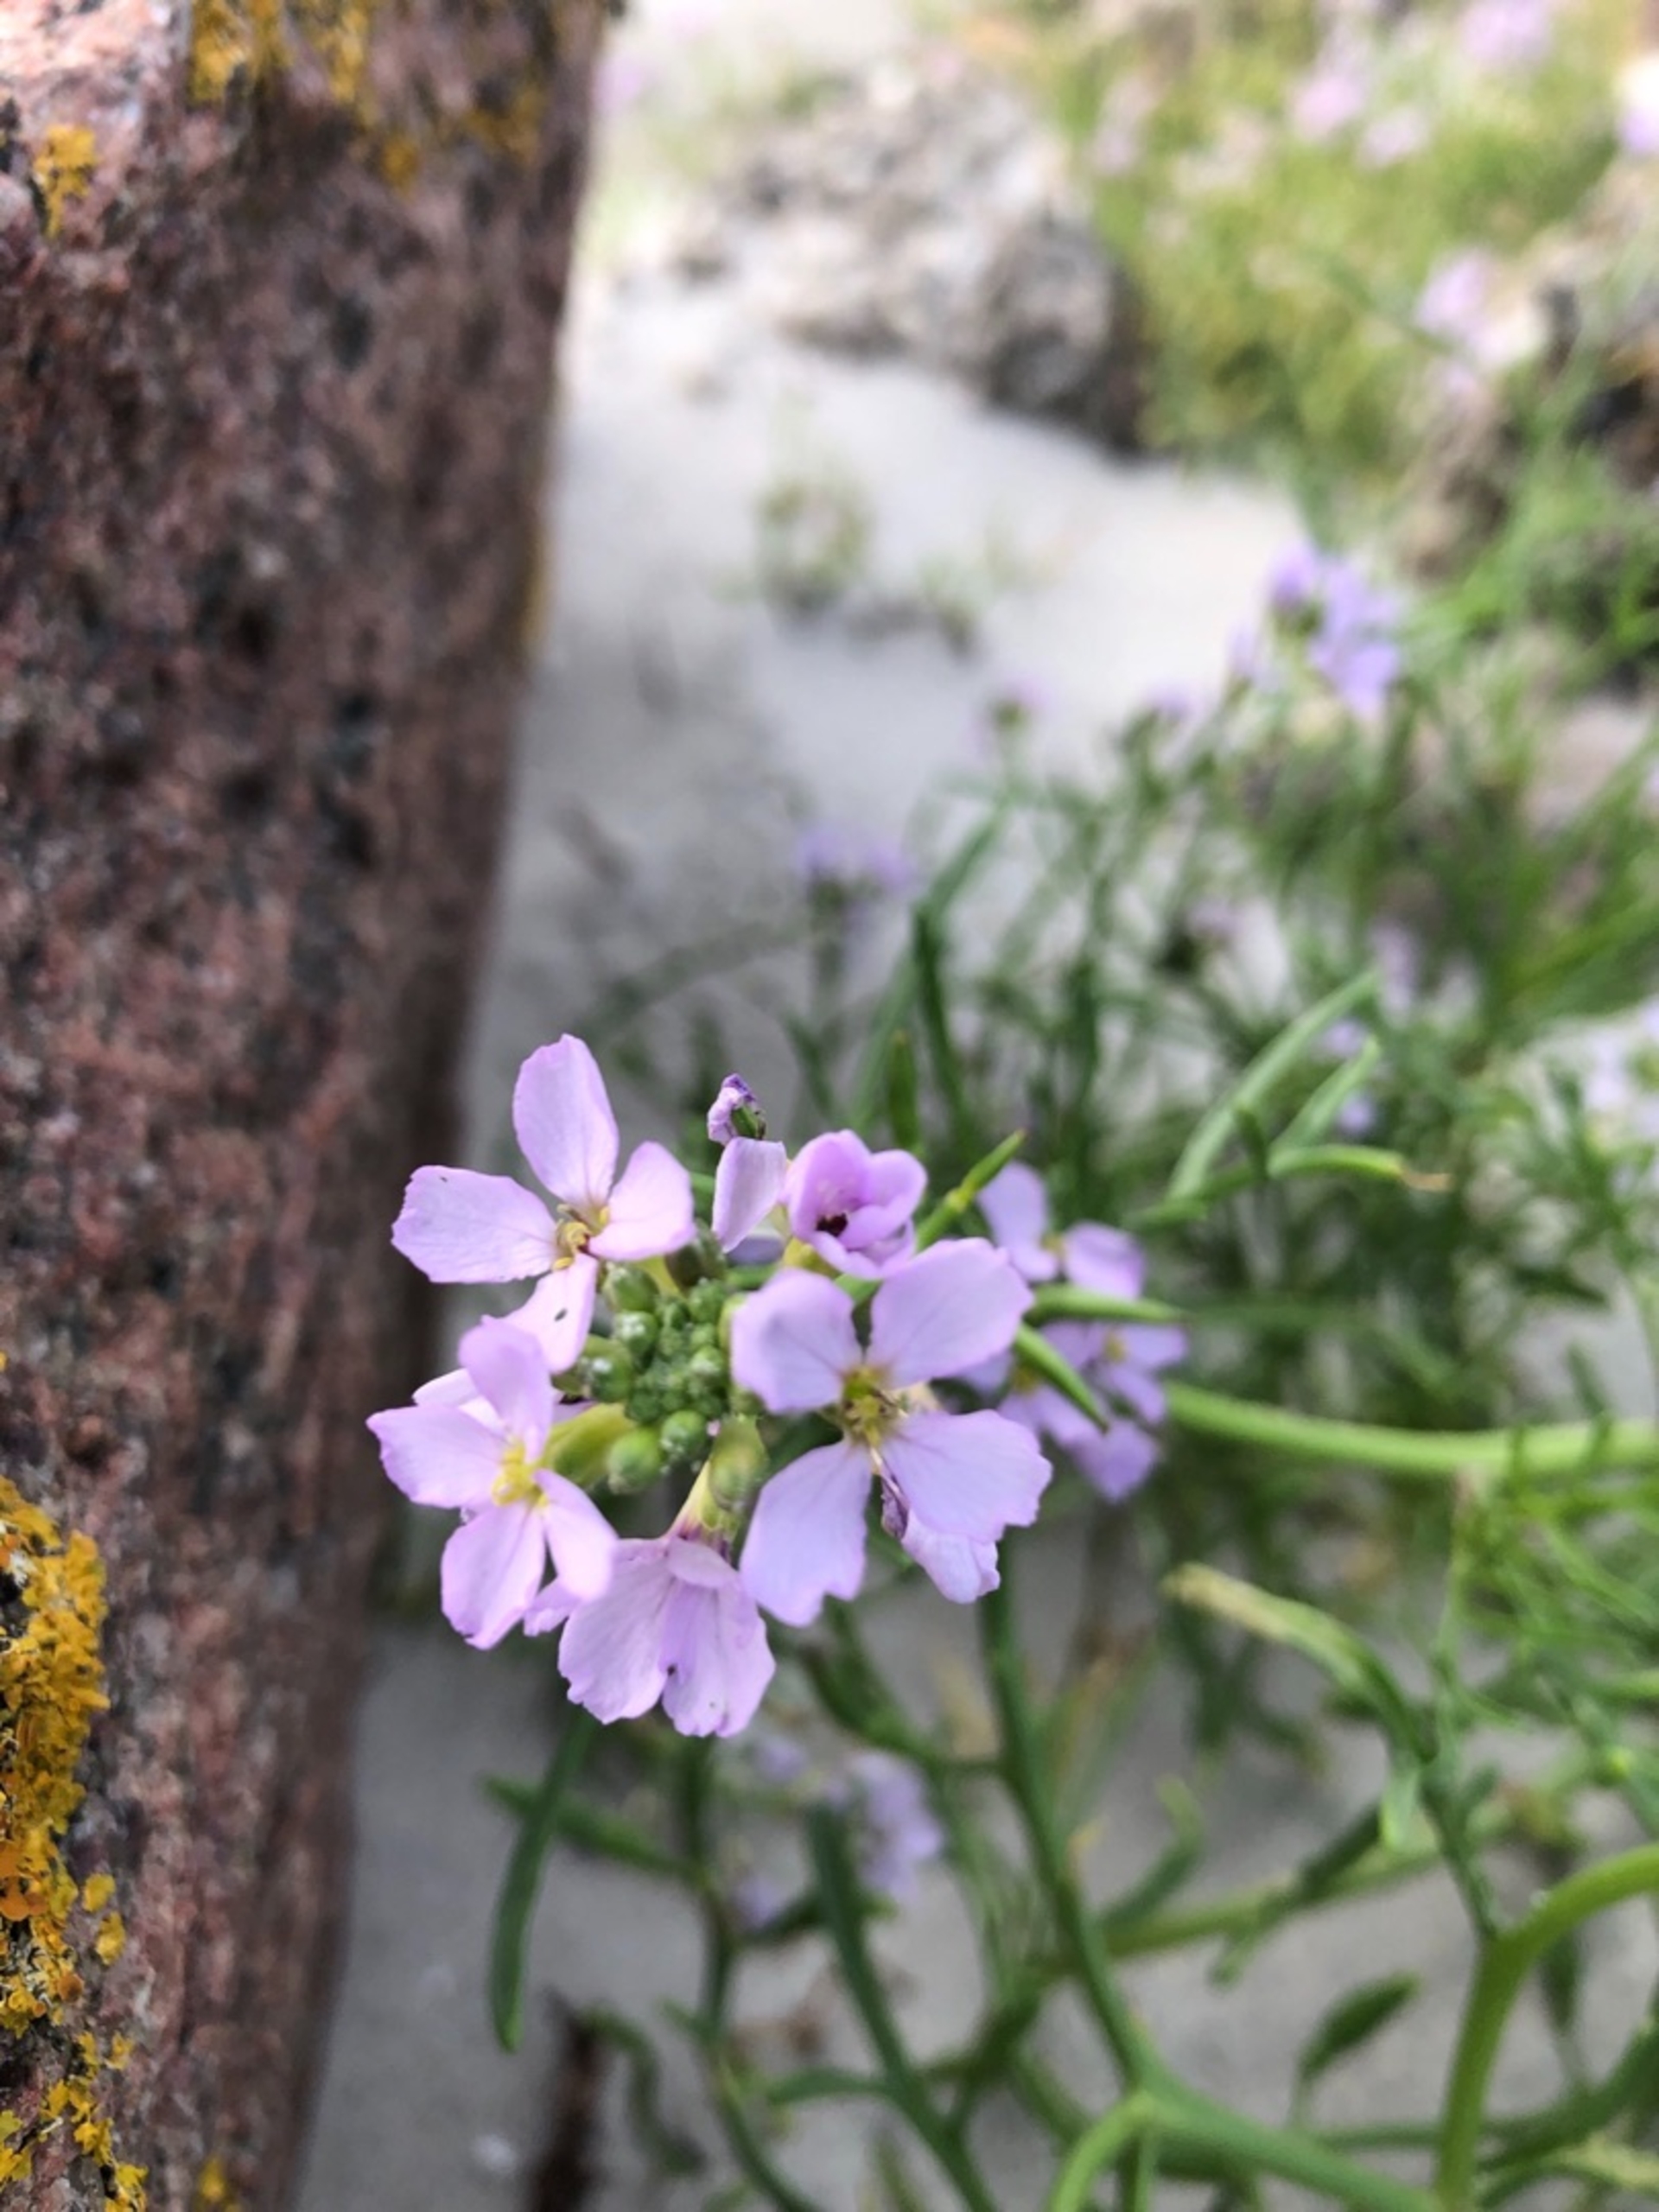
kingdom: Plantae
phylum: Tracheophyta
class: Magnoliopsida
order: Brassicales
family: Brassicaceae
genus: Cakile
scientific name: Cakile maritima
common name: Strandsennep
